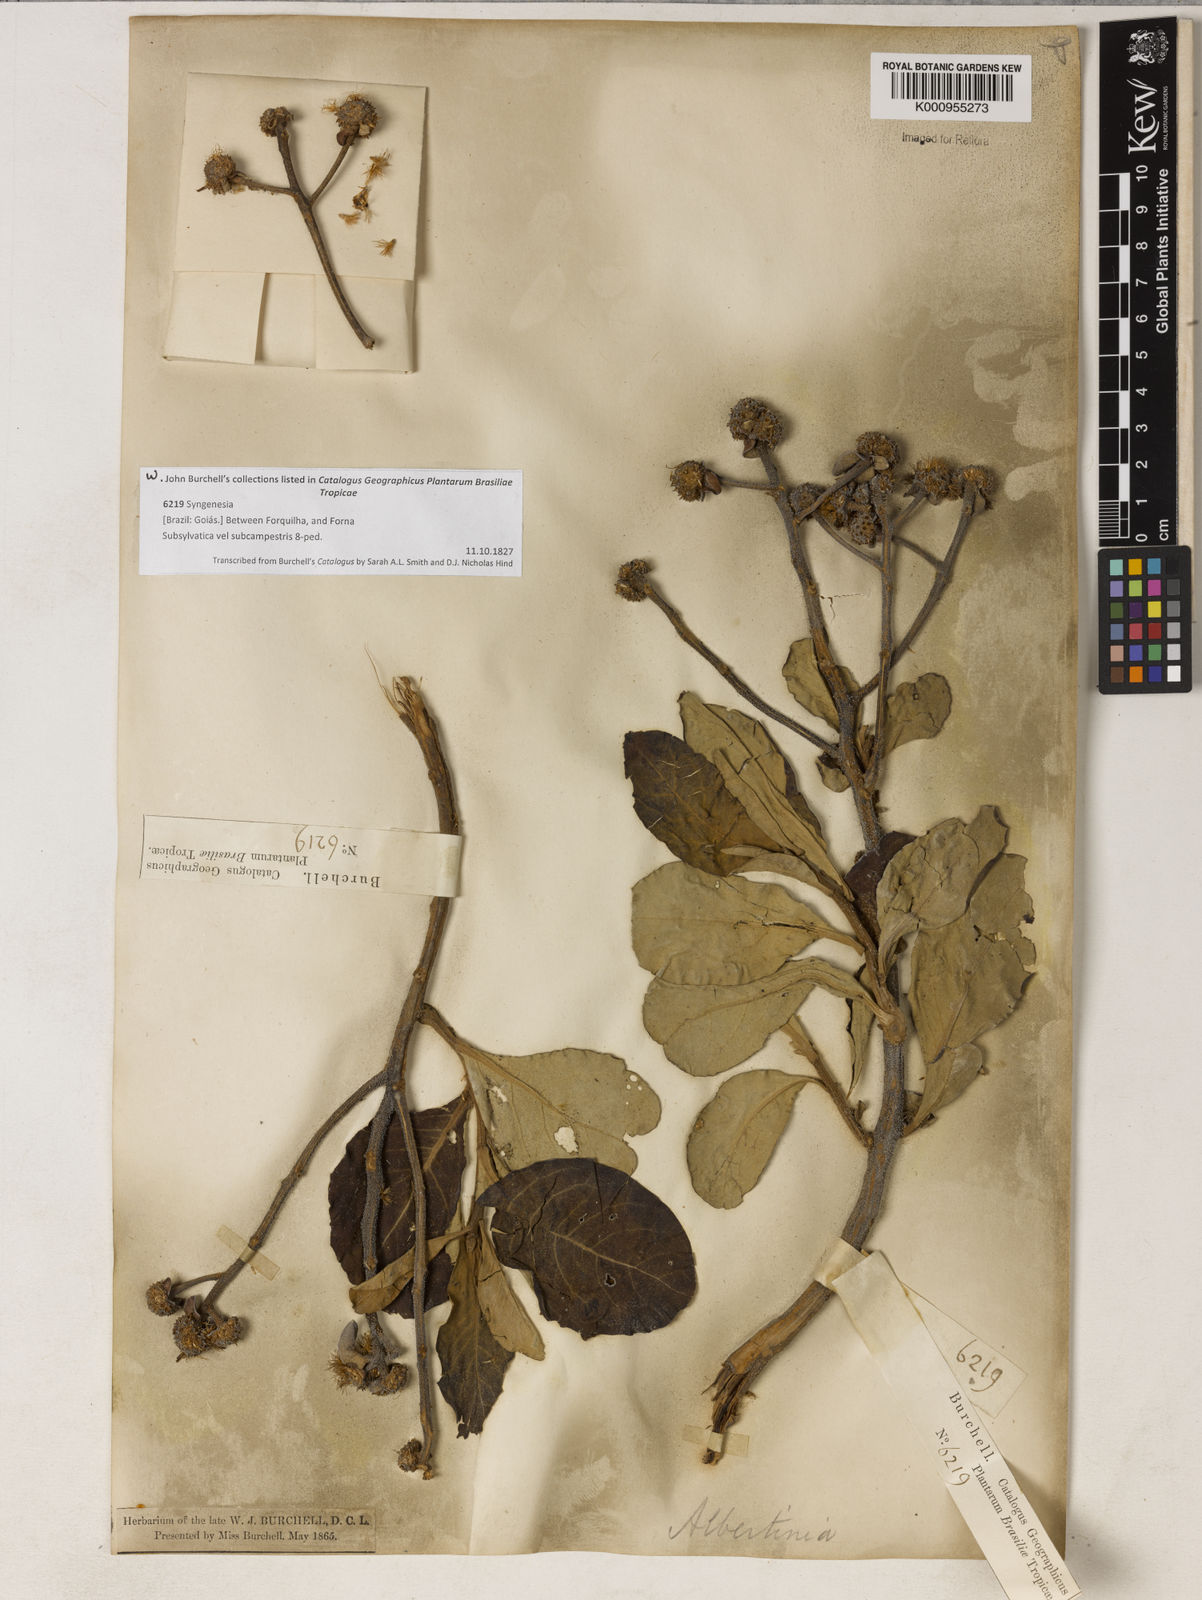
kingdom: Plantae
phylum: Tracheophyta
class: Magnoliopsida
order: Asterales
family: Asteraceae
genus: Eremanthus
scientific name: Eremanthus incanus
